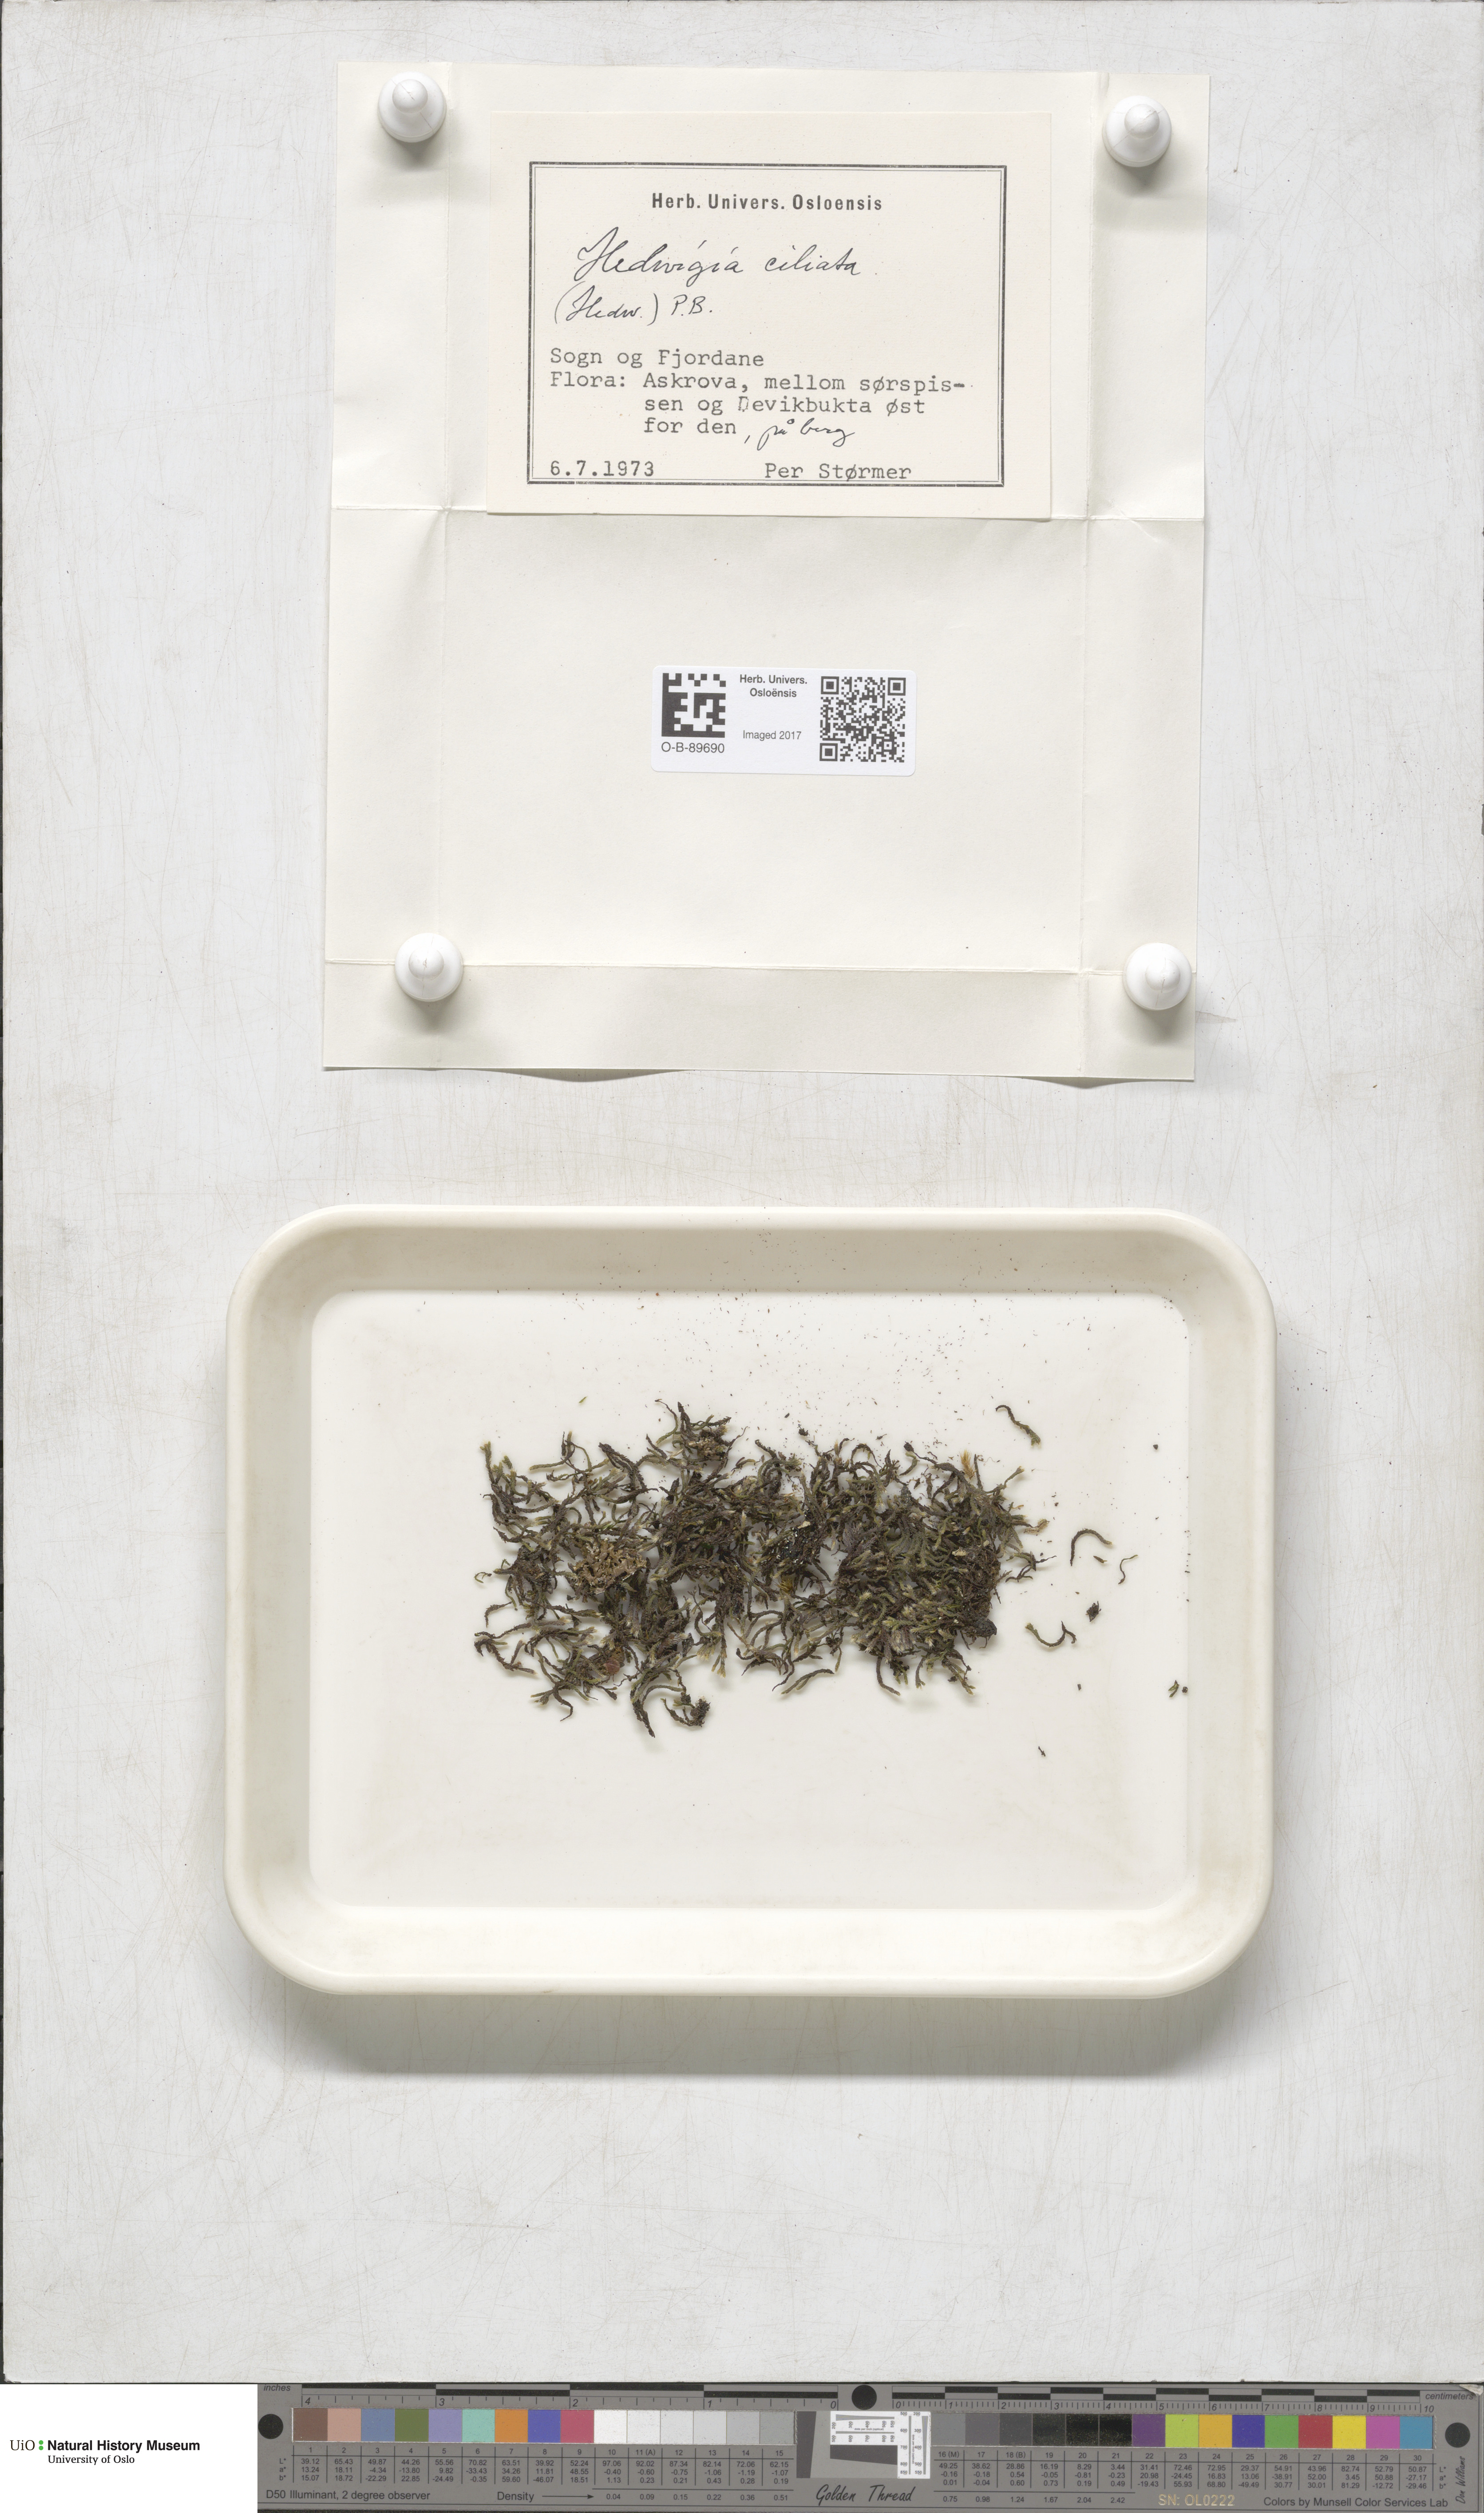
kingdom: Plantae
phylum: Bryophyta
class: Bryopsida
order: Hedwigiales
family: Hedwigiaceae
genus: Hedwigia
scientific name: Hedwigia ciliata
